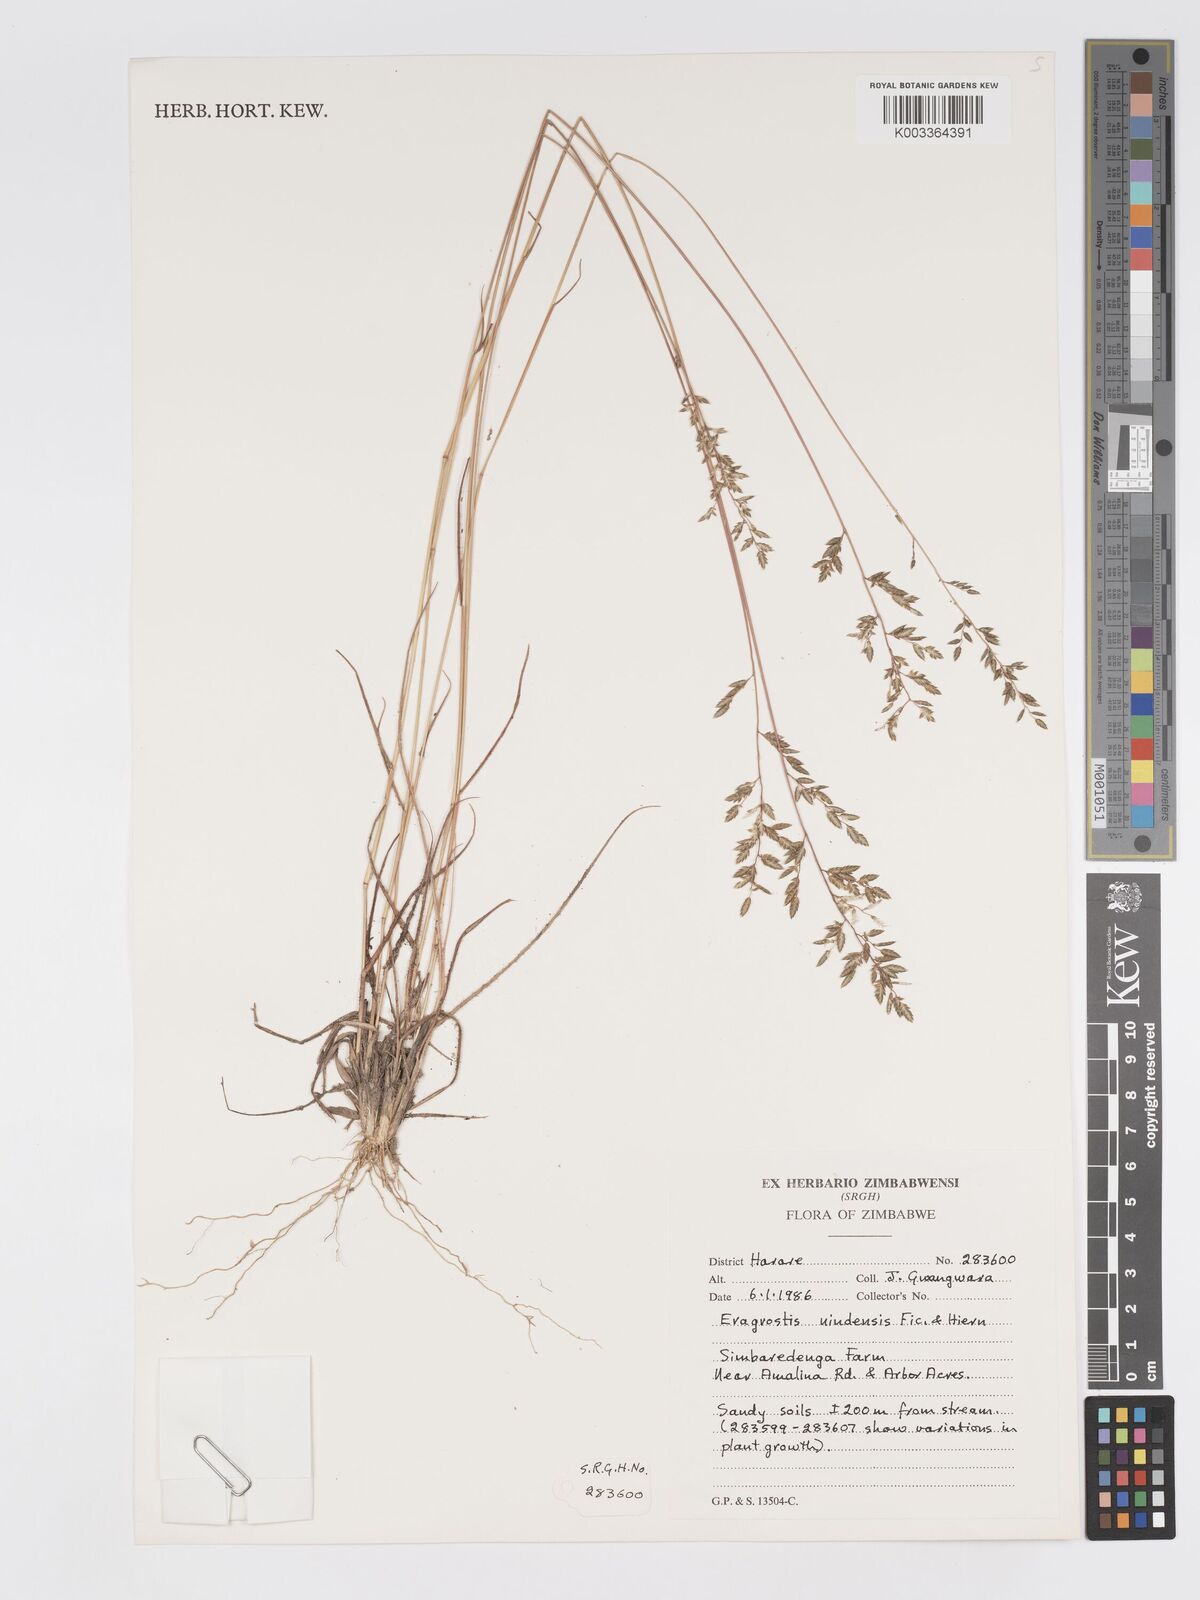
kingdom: Plantae
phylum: Tracheophyta
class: Liliopsida
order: Poales
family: Poaceae
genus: Eragrostis
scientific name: Eragrostis racemosa
